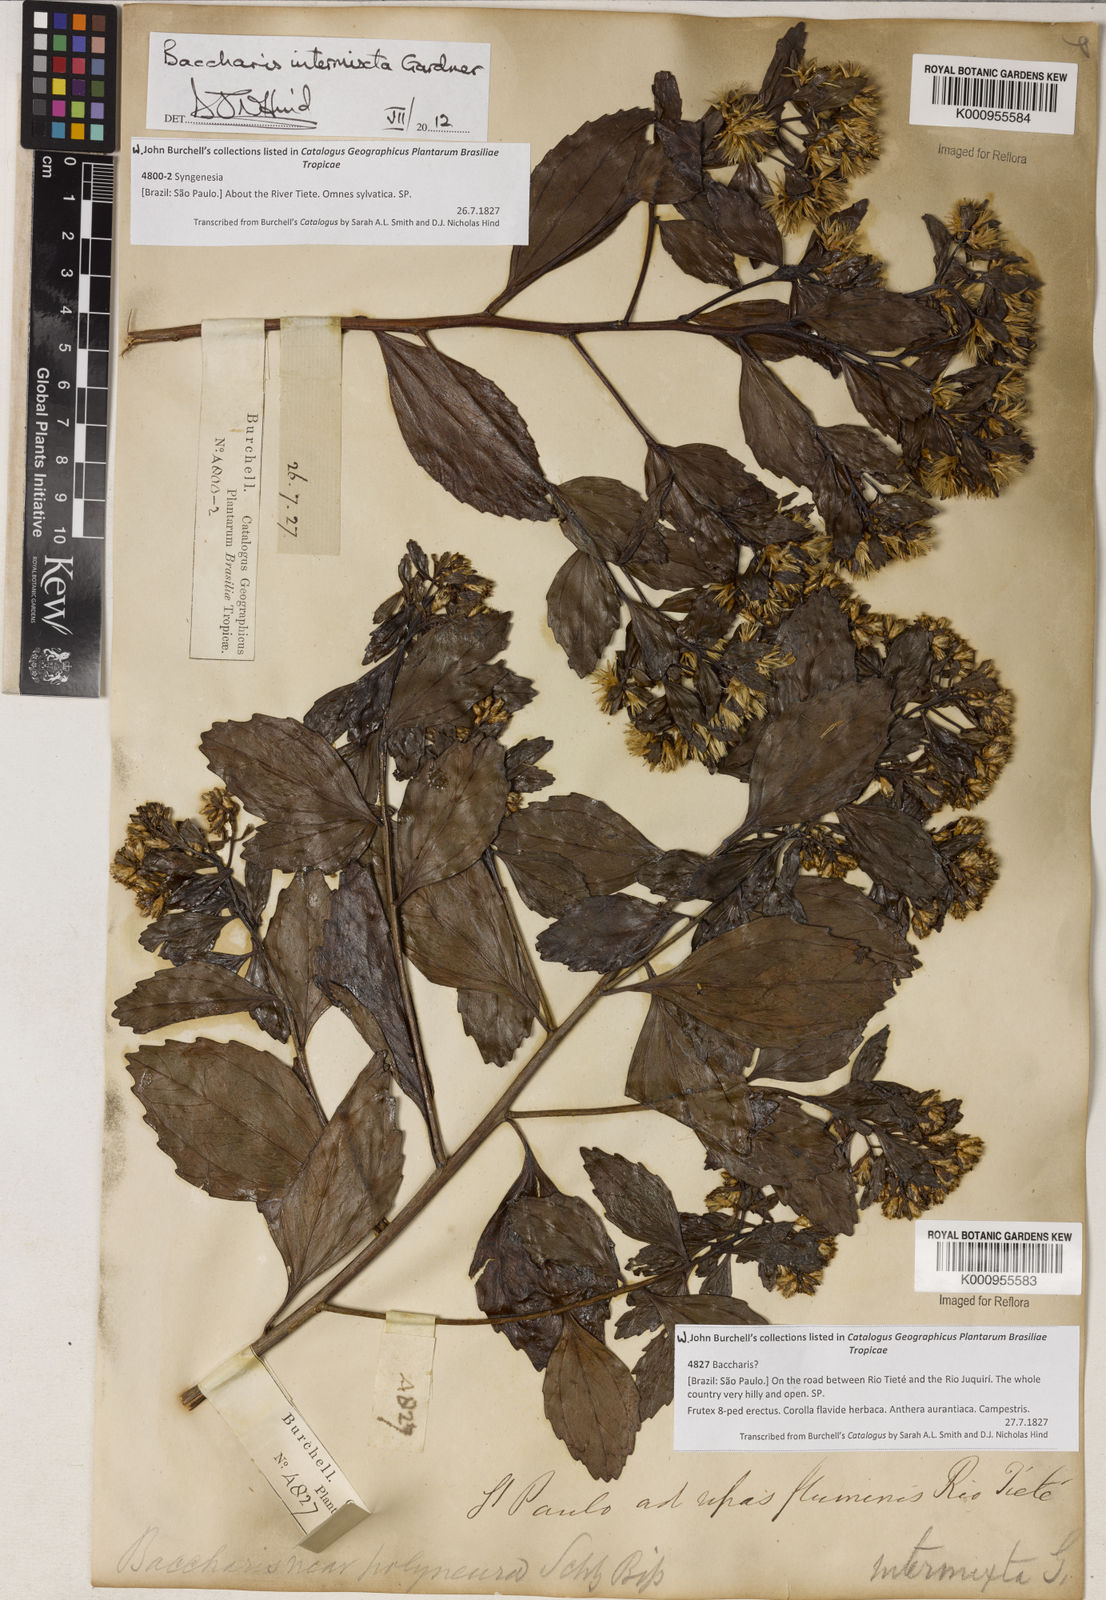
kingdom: Plantae
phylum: Tracheophyta
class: Magnoliopsida
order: Asterales
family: Asteraceae
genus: Baccharis
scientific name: Baccharis intermixta
